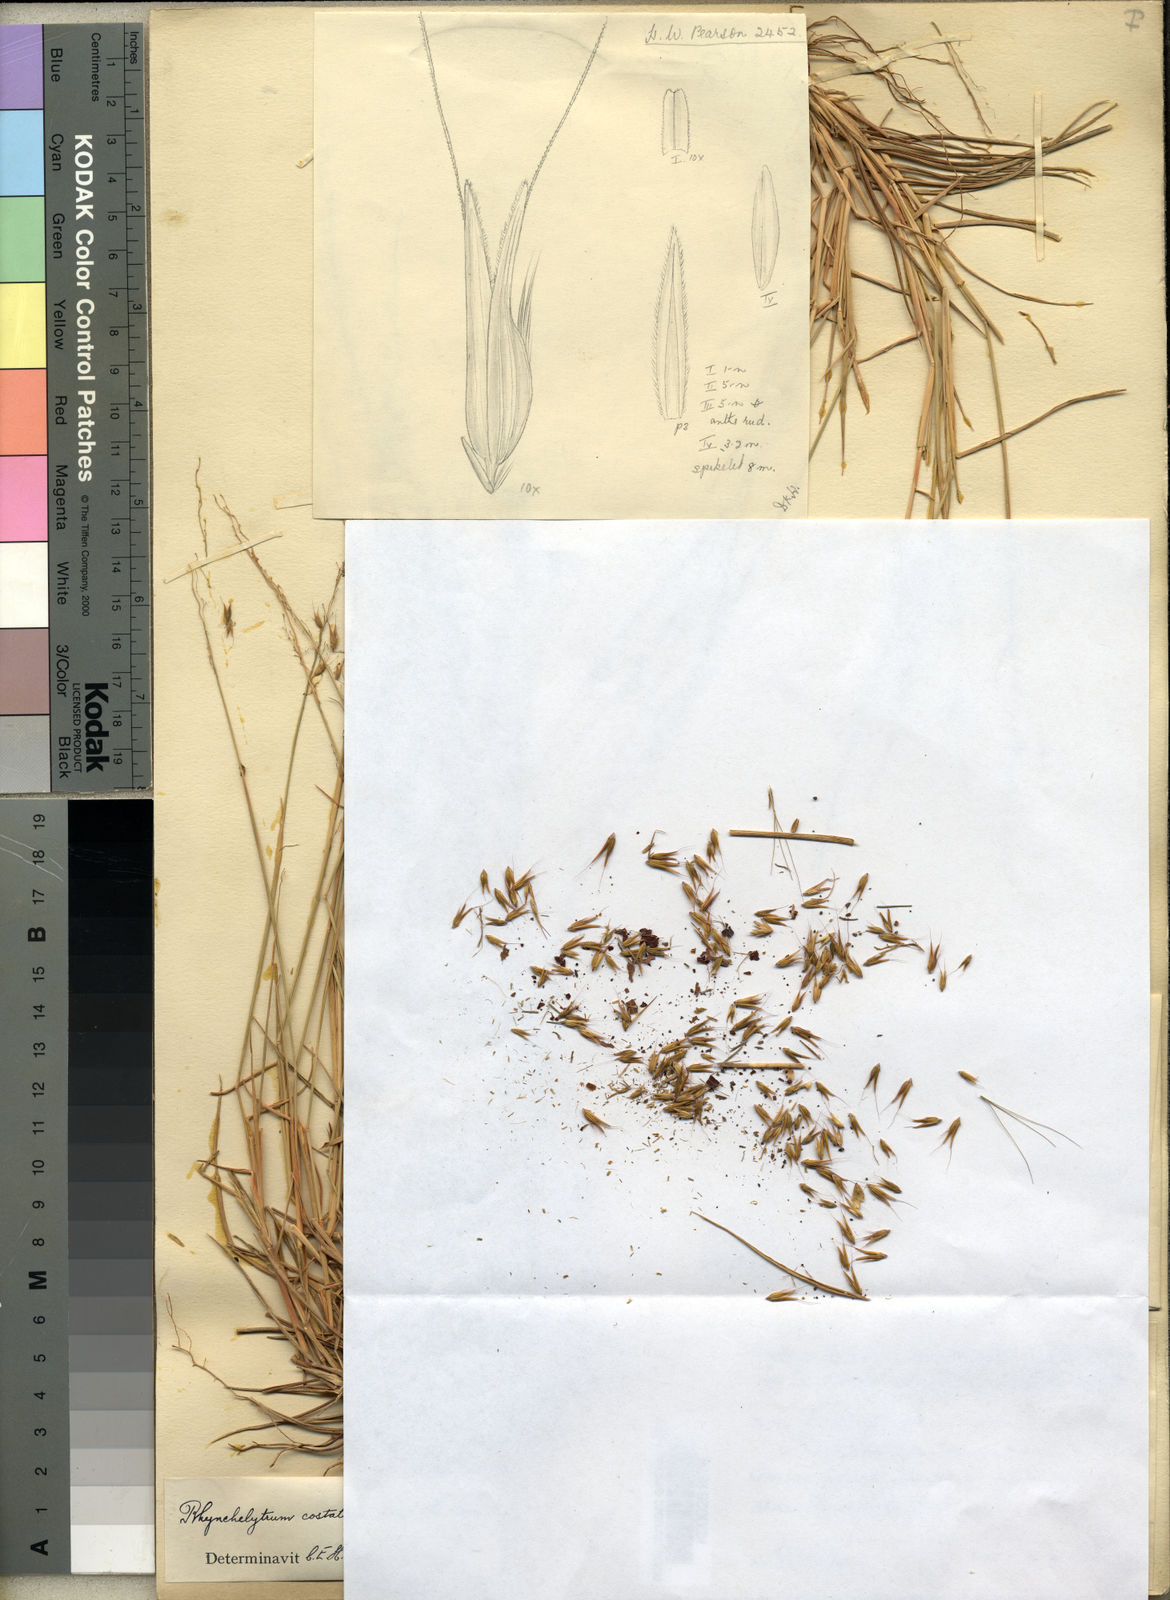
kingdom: Plantae
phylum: Tracheophyta
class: Liliopsida
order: Poales
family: Poaceae
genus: Melinis
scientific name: Melinis repens
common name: Rose natal grass
